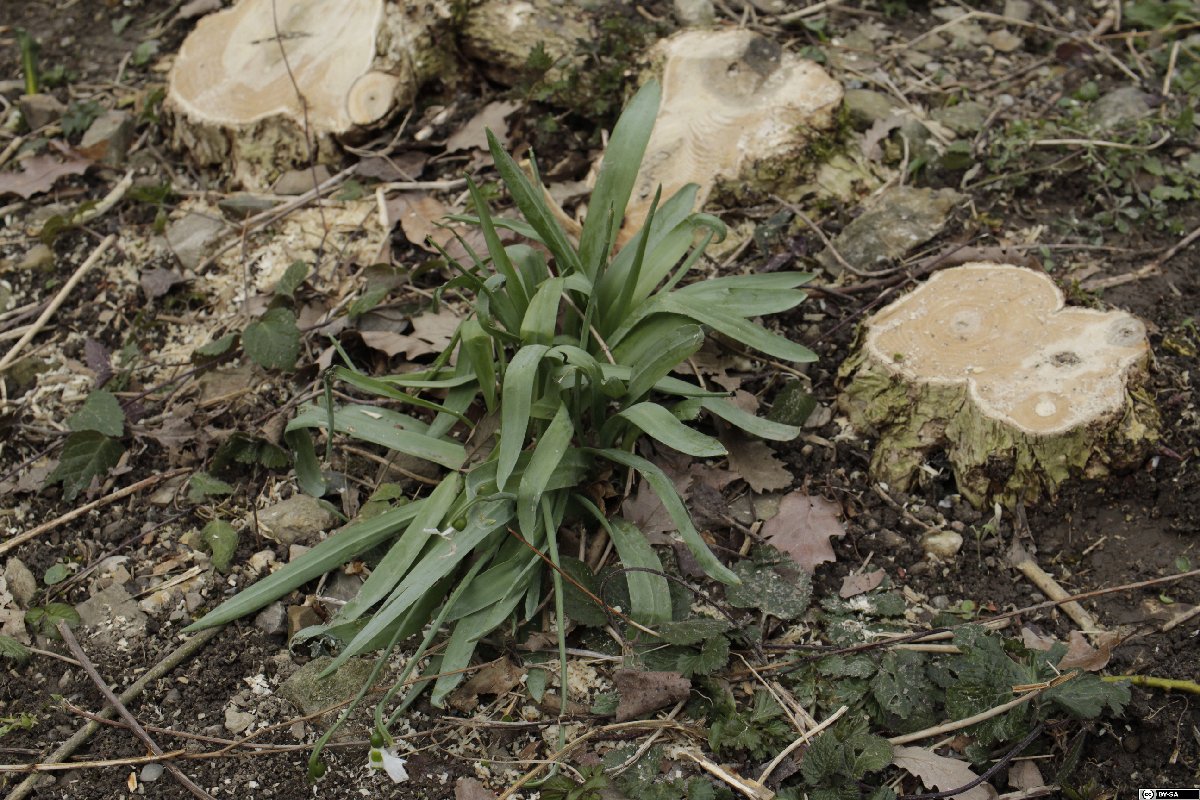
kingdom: Plantae
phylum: Tracheophyta
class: Liliopsida
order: Asparagales
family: Amaryllidaceae
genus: Galanthus
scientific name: Galanthus elwesii
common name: Greater snowdrop
